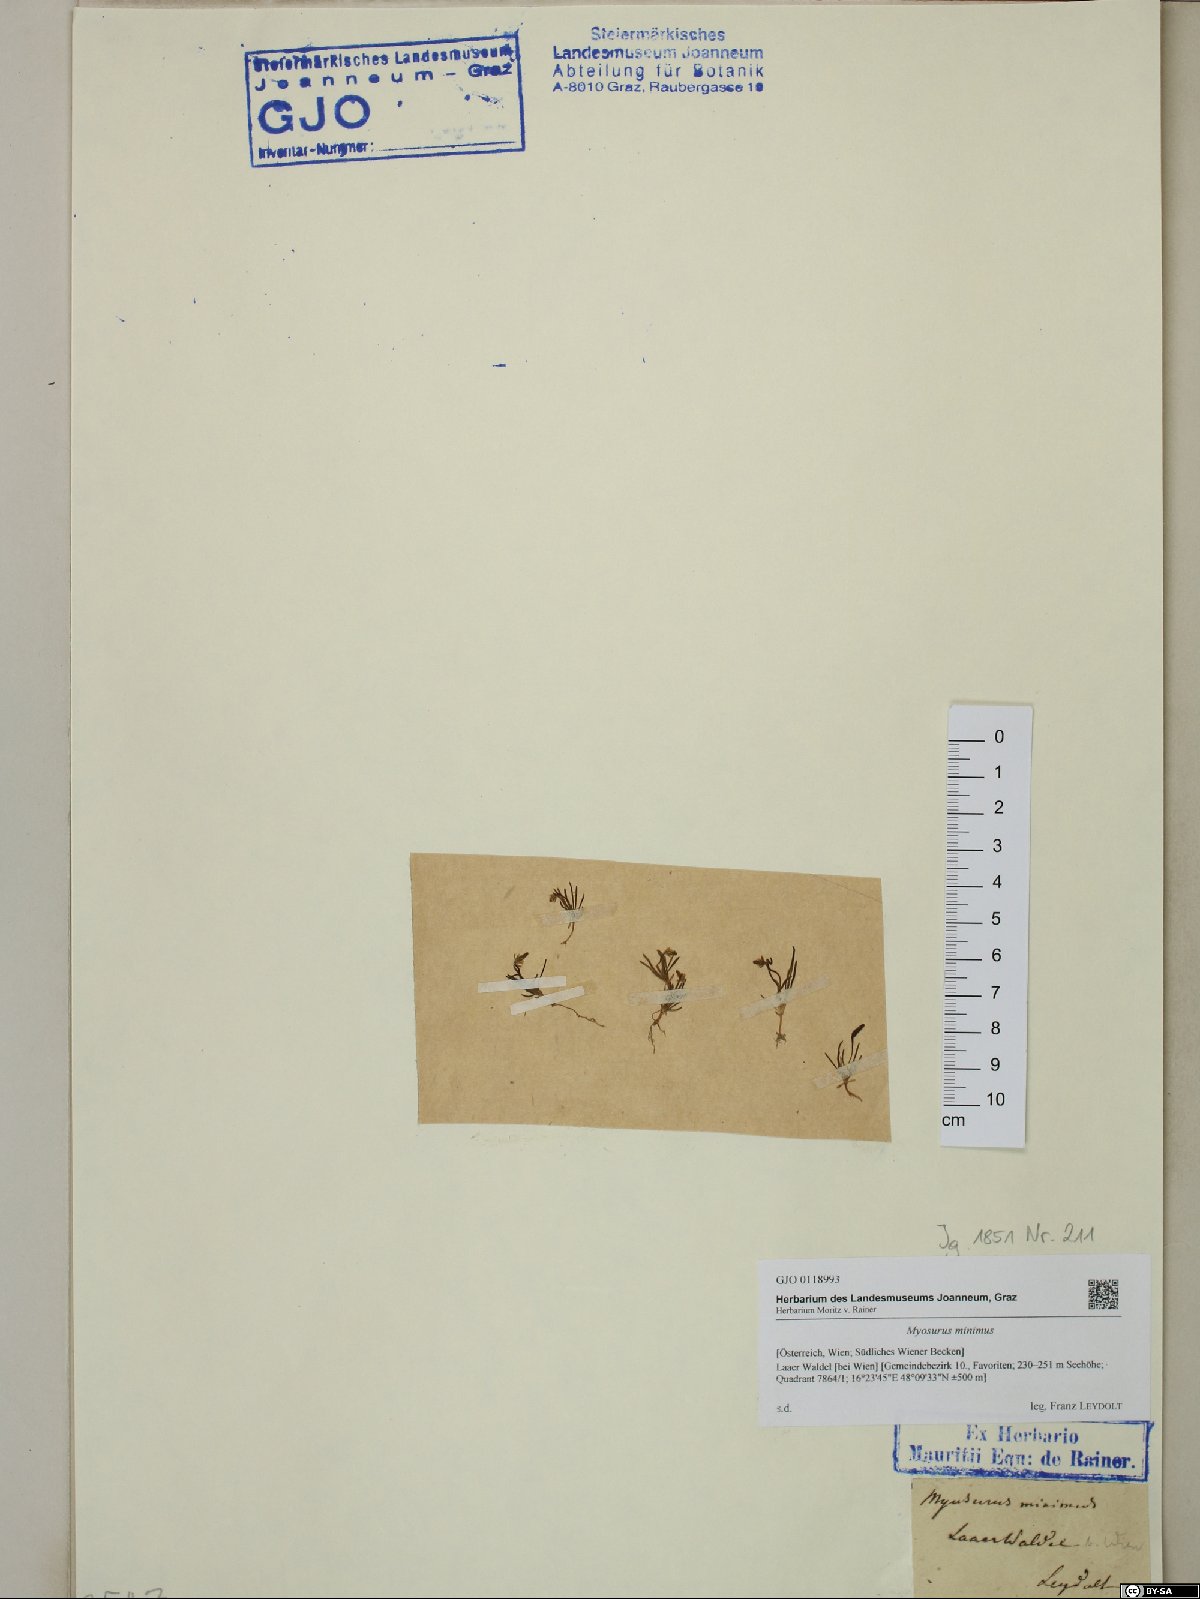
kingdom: Plantae
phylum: Tracheophyta
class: Magnoliopsida
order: Ranunculales
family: Ranunculaceae
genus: Myosurus
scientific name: Myosurus minimus
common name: Mousetail
